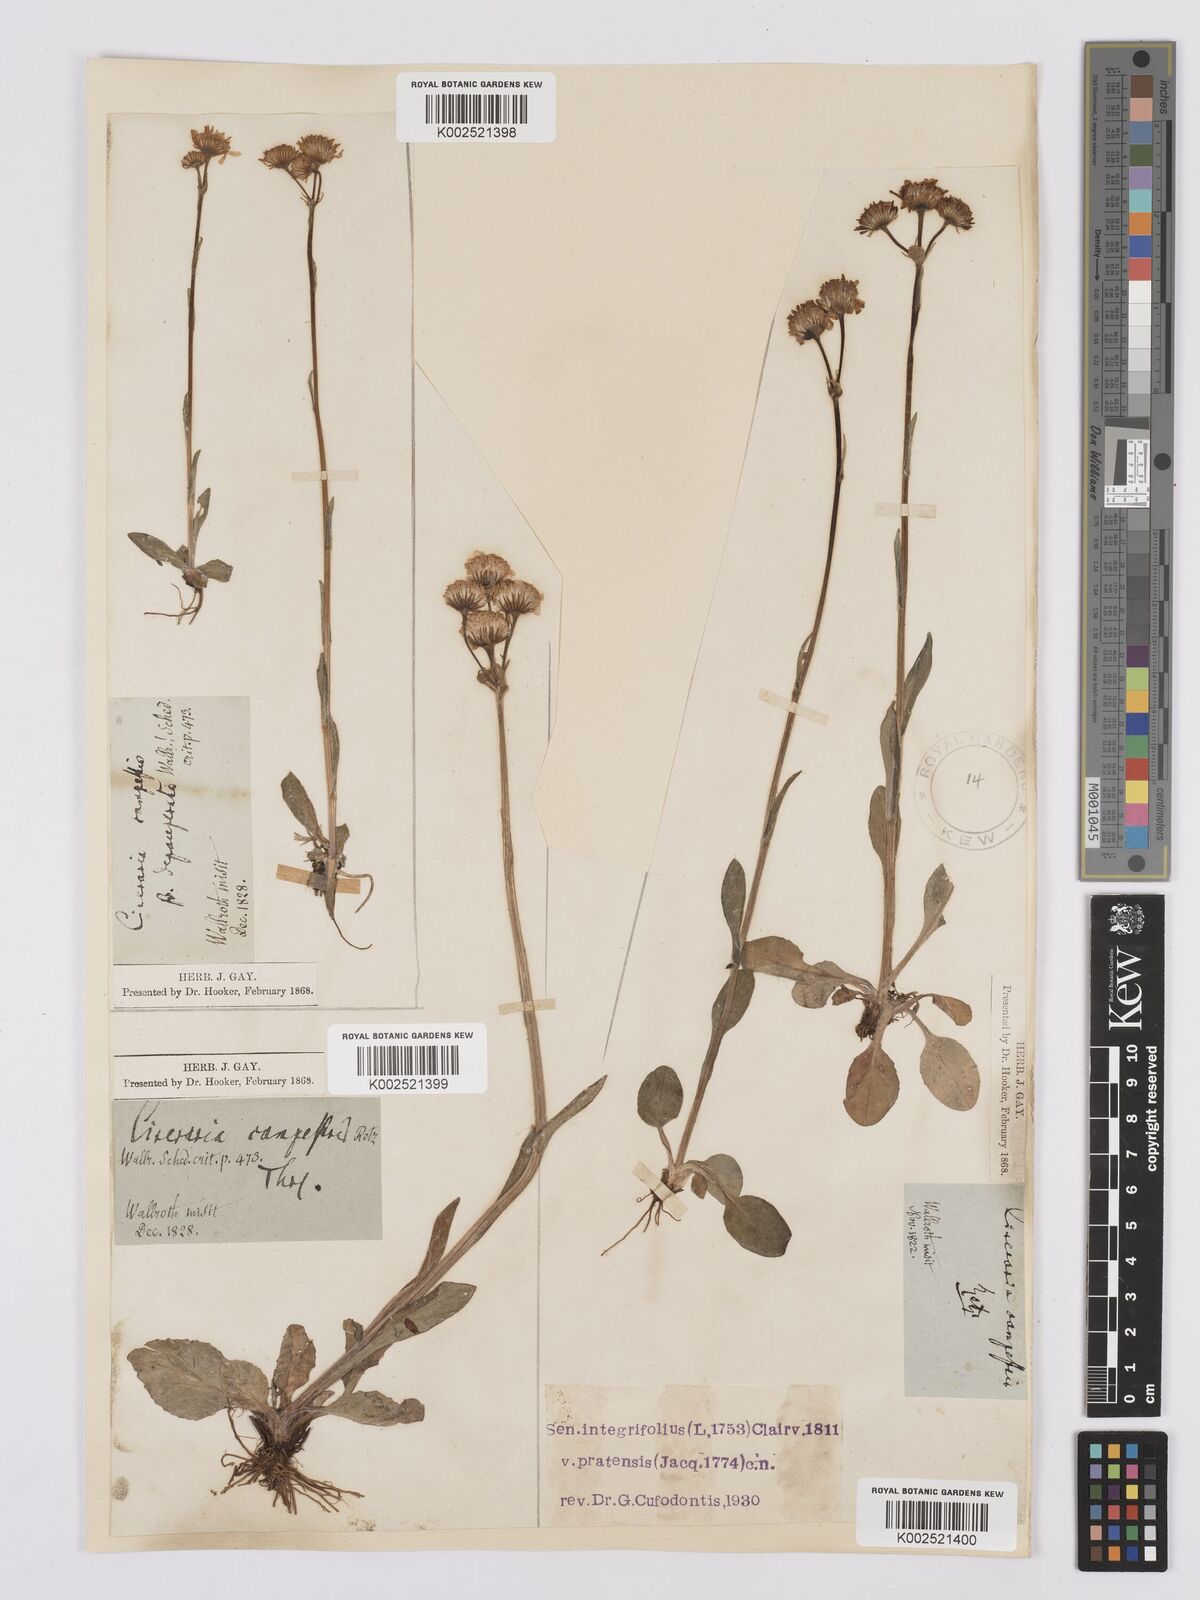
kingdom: Plantae
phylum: Tracheophyta
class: Magnoliopsida
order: Asterales
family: Asteraceae
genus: Tephroseris
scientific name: Tephroseris integrifolia
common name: Field fleawort
